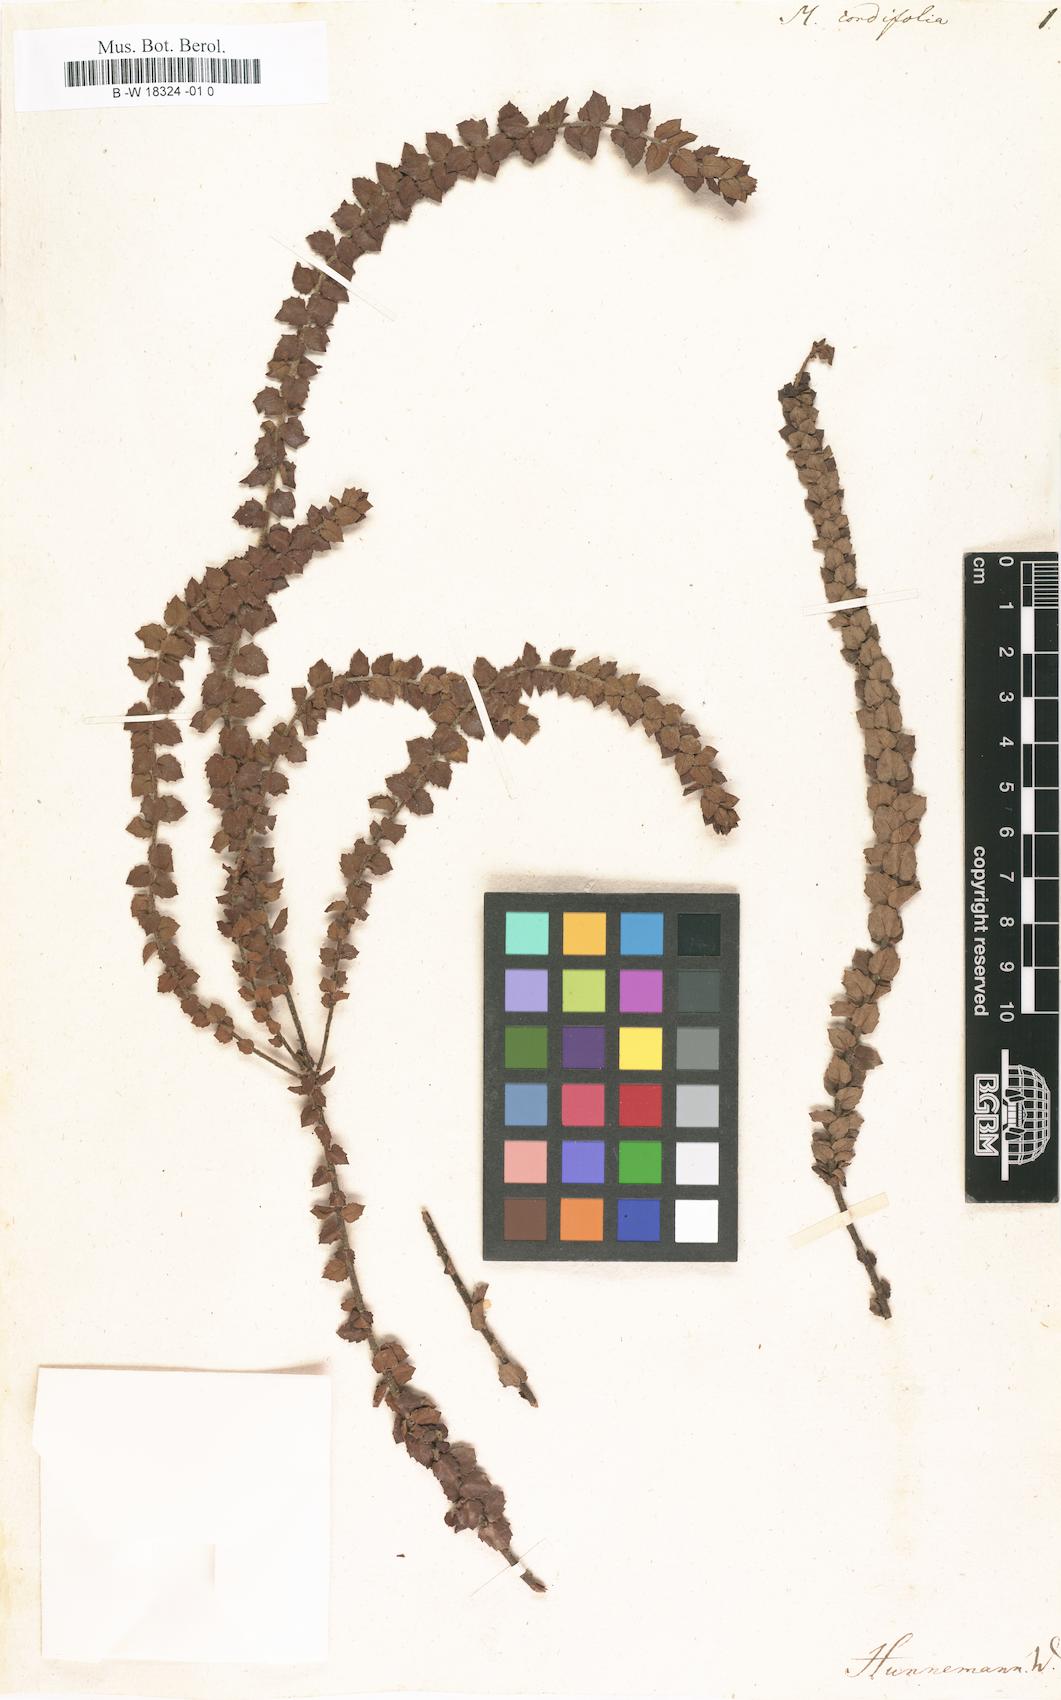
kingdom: Plantae
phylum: Tracheophyta
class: Magnoliopsida
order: Fagales
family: Myricaceae
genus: Morella
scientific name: Morella cordifolia
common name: Waxberry
